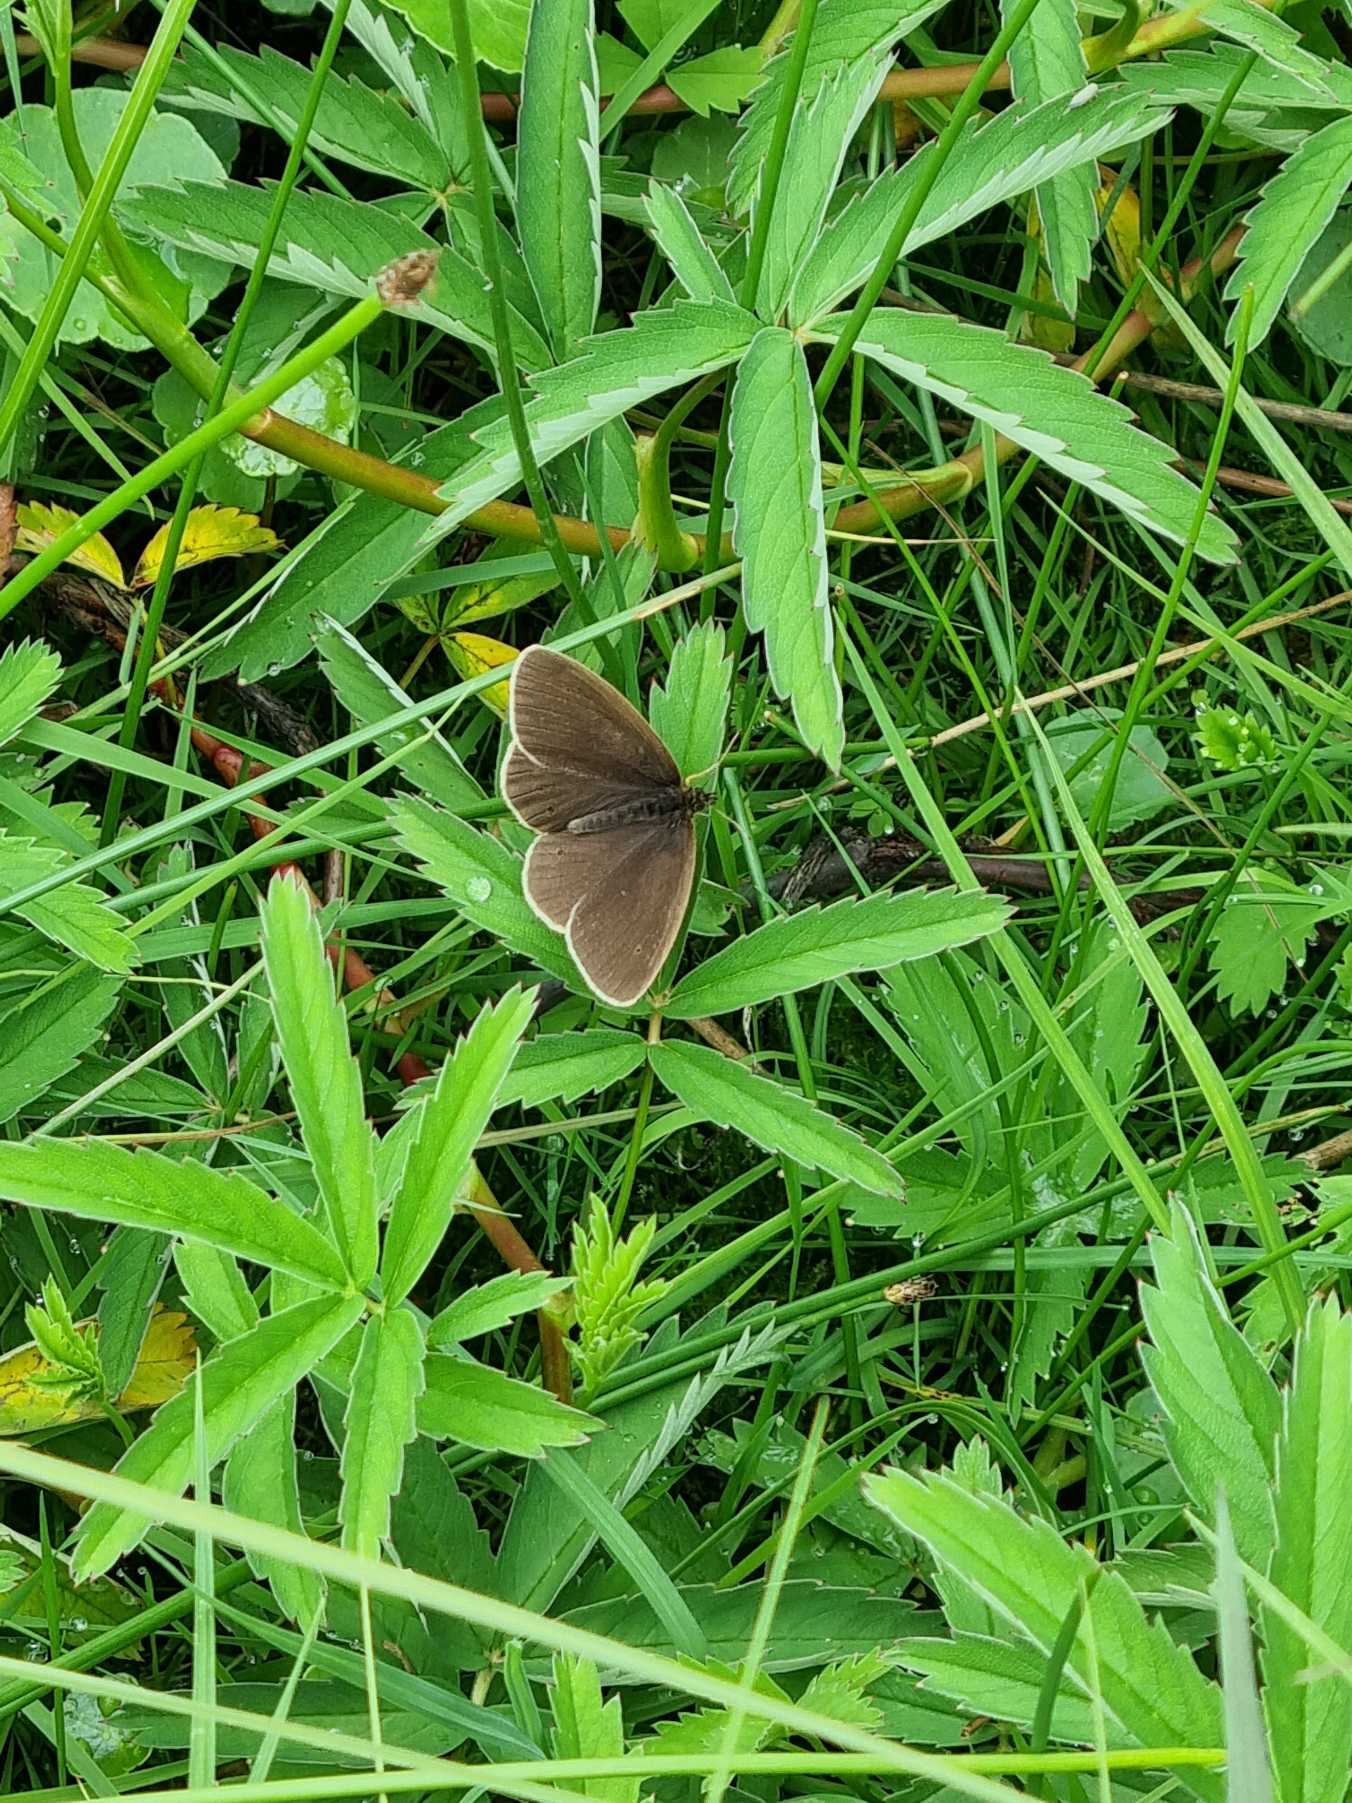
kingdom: Animalia
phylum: Arthropoda
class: Insecta
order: Lepidoptera
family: Nymphalidae
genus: Aphantopus
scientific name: Aphantopus hyperantus
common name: Engrandøje
